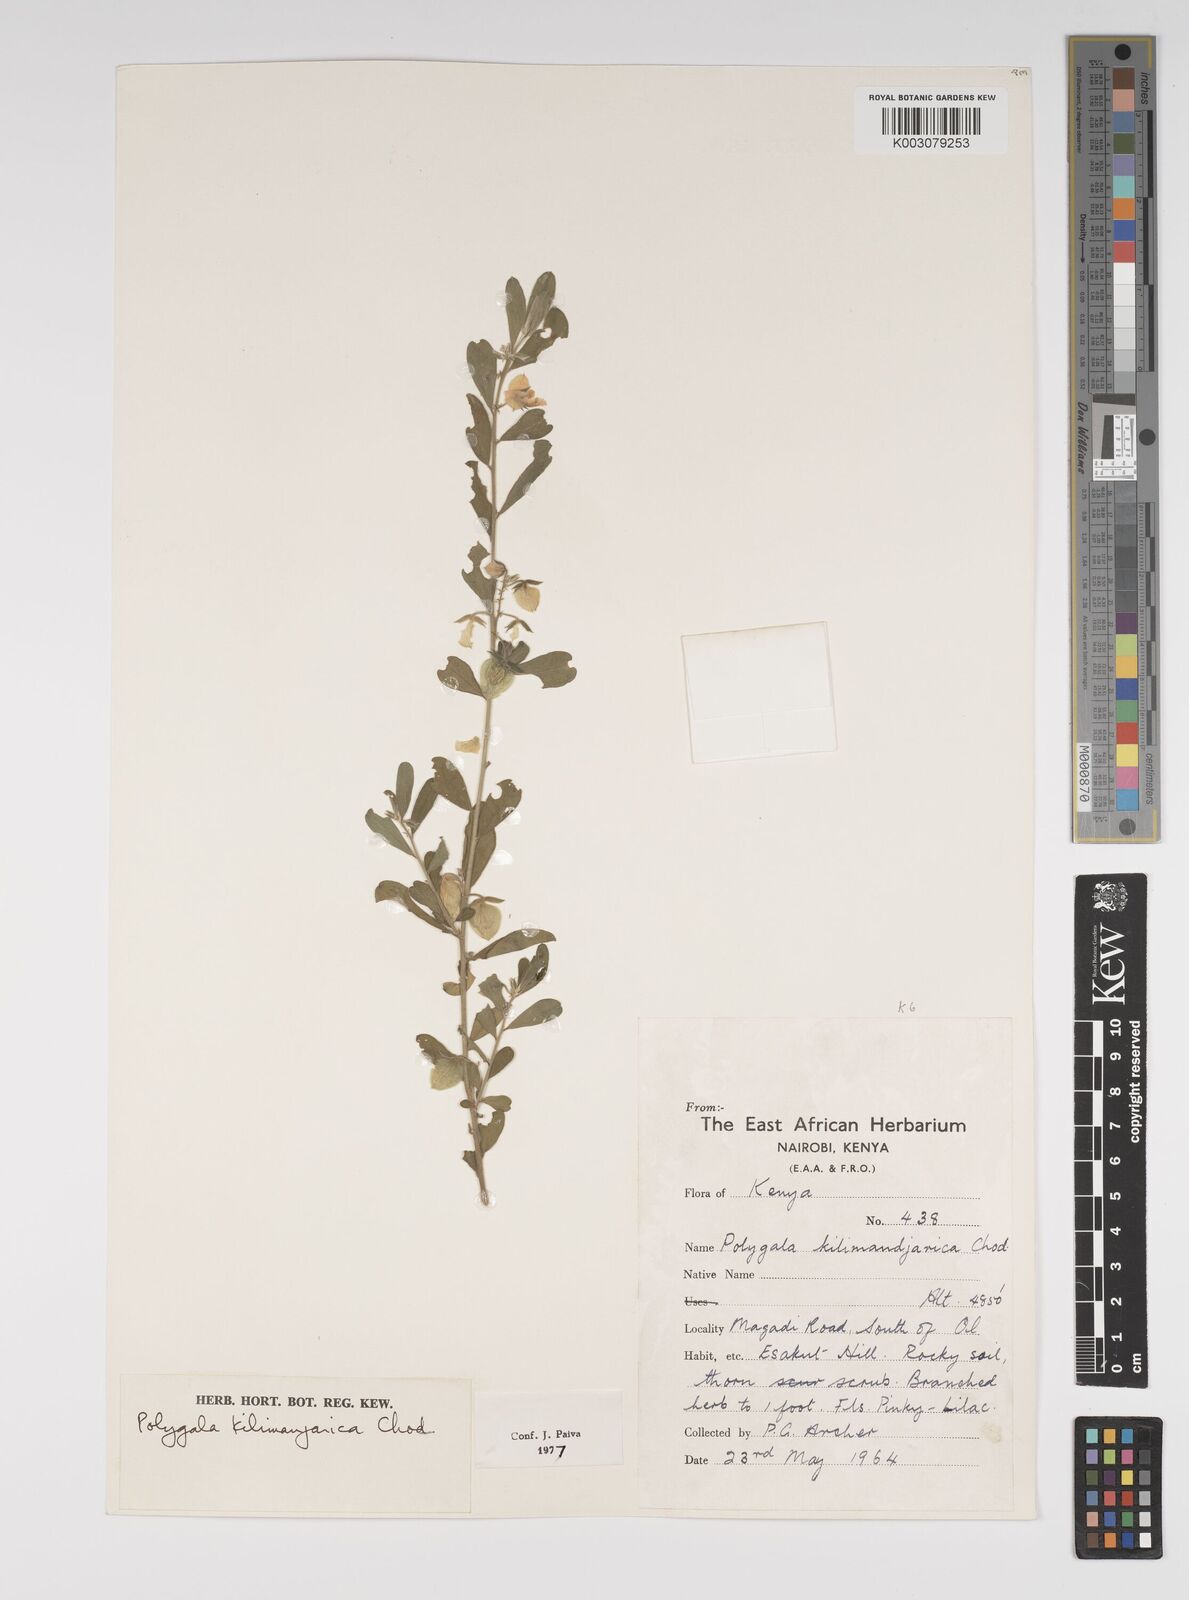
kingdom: Plantae
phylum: Tracheophyta
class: Magnoliopsida
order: Fabales
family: Polygalaceae
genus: Polygala
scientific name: Polygala kilimandjarica
